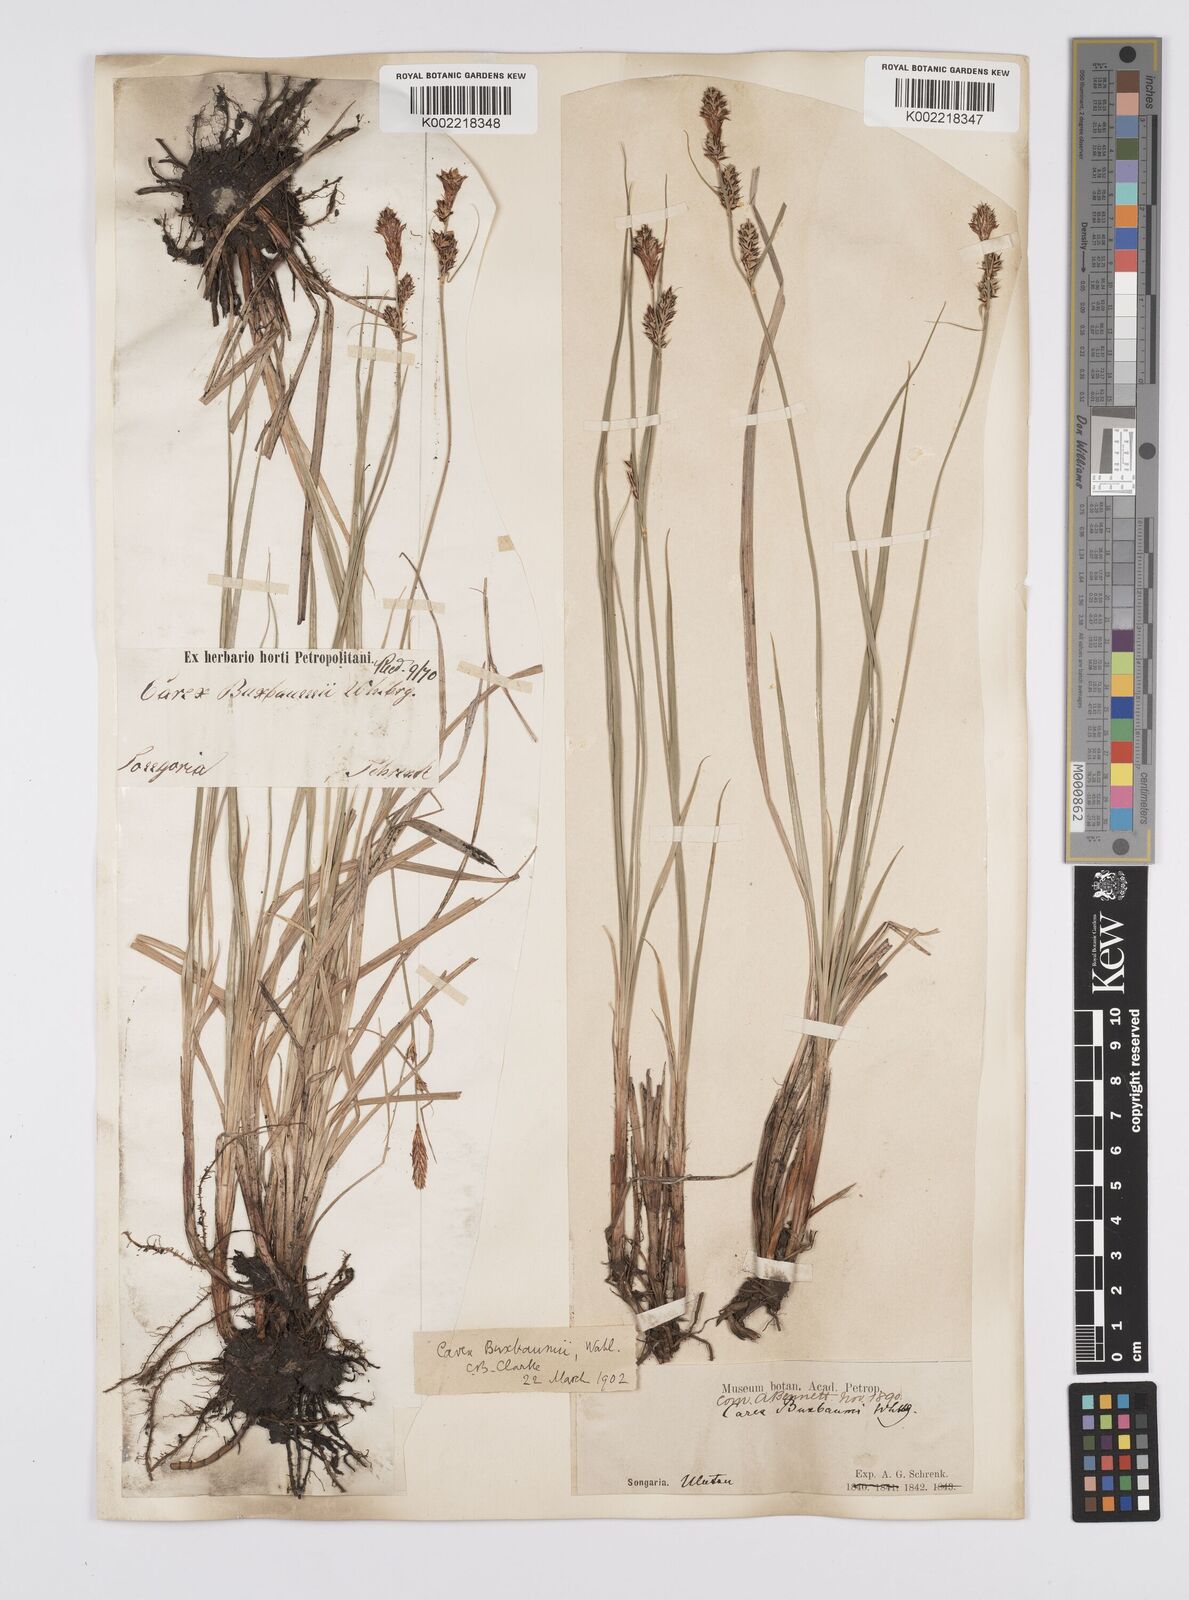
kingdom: Plantae
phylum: Tracheophyta
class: Liliopsida
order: Poales
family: Cyperaceae
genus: Carex
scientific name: Carex buxbaumii
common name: Club sedge
